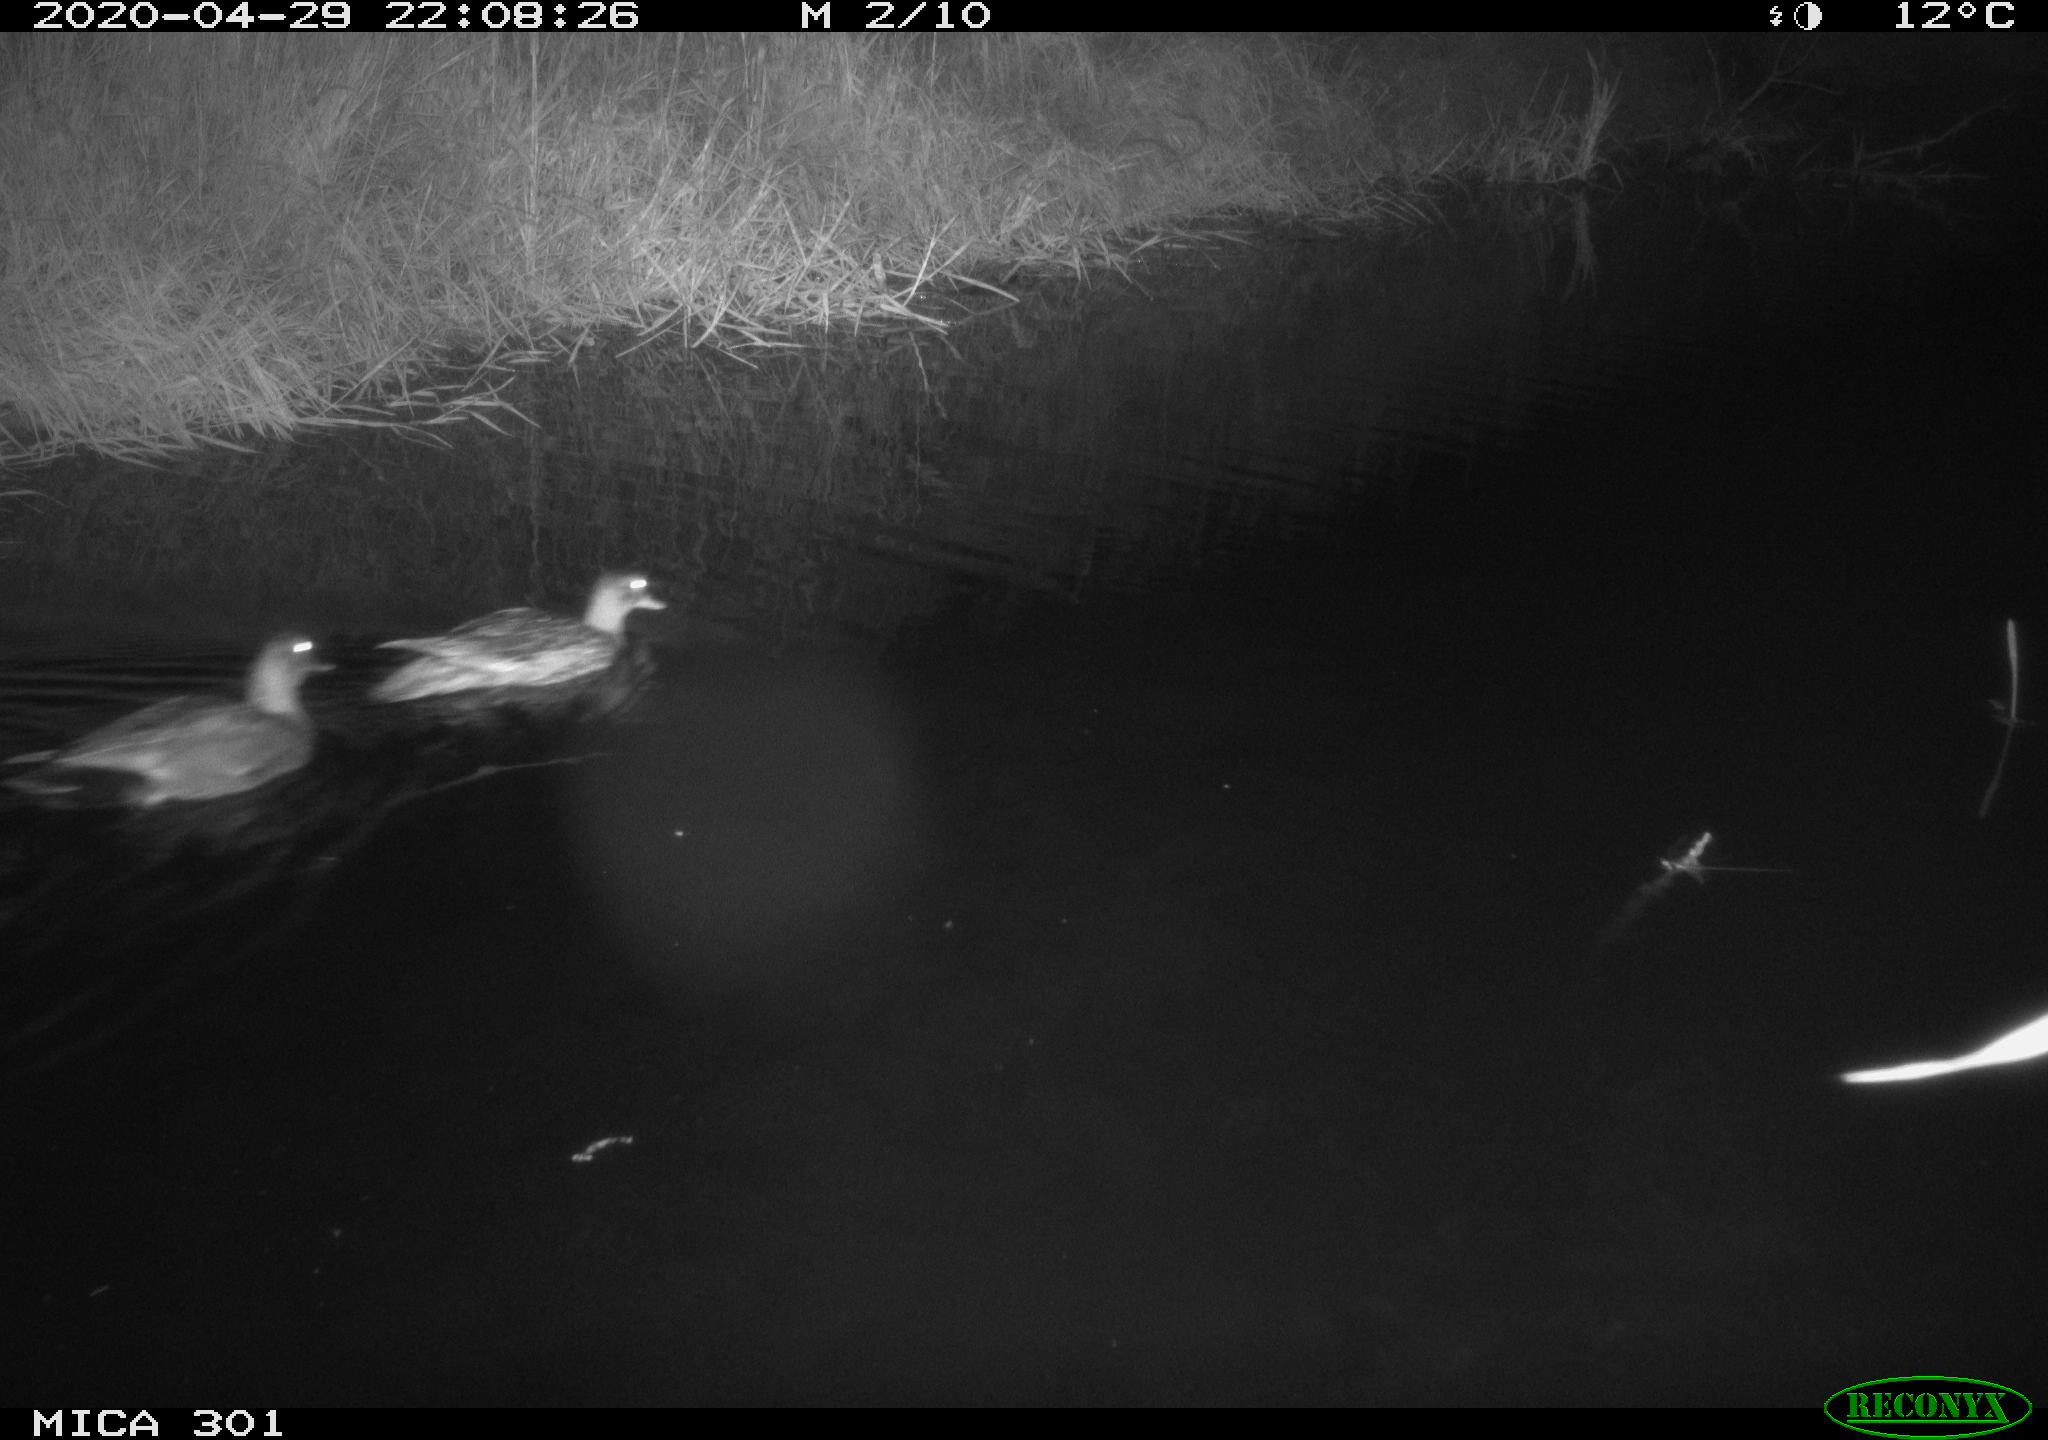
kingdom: Animalia
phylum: Chordata
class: Aves
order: Anseriformes
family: Anatidae
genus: Mareca
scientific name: Mareca strepera
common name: Gadwall
